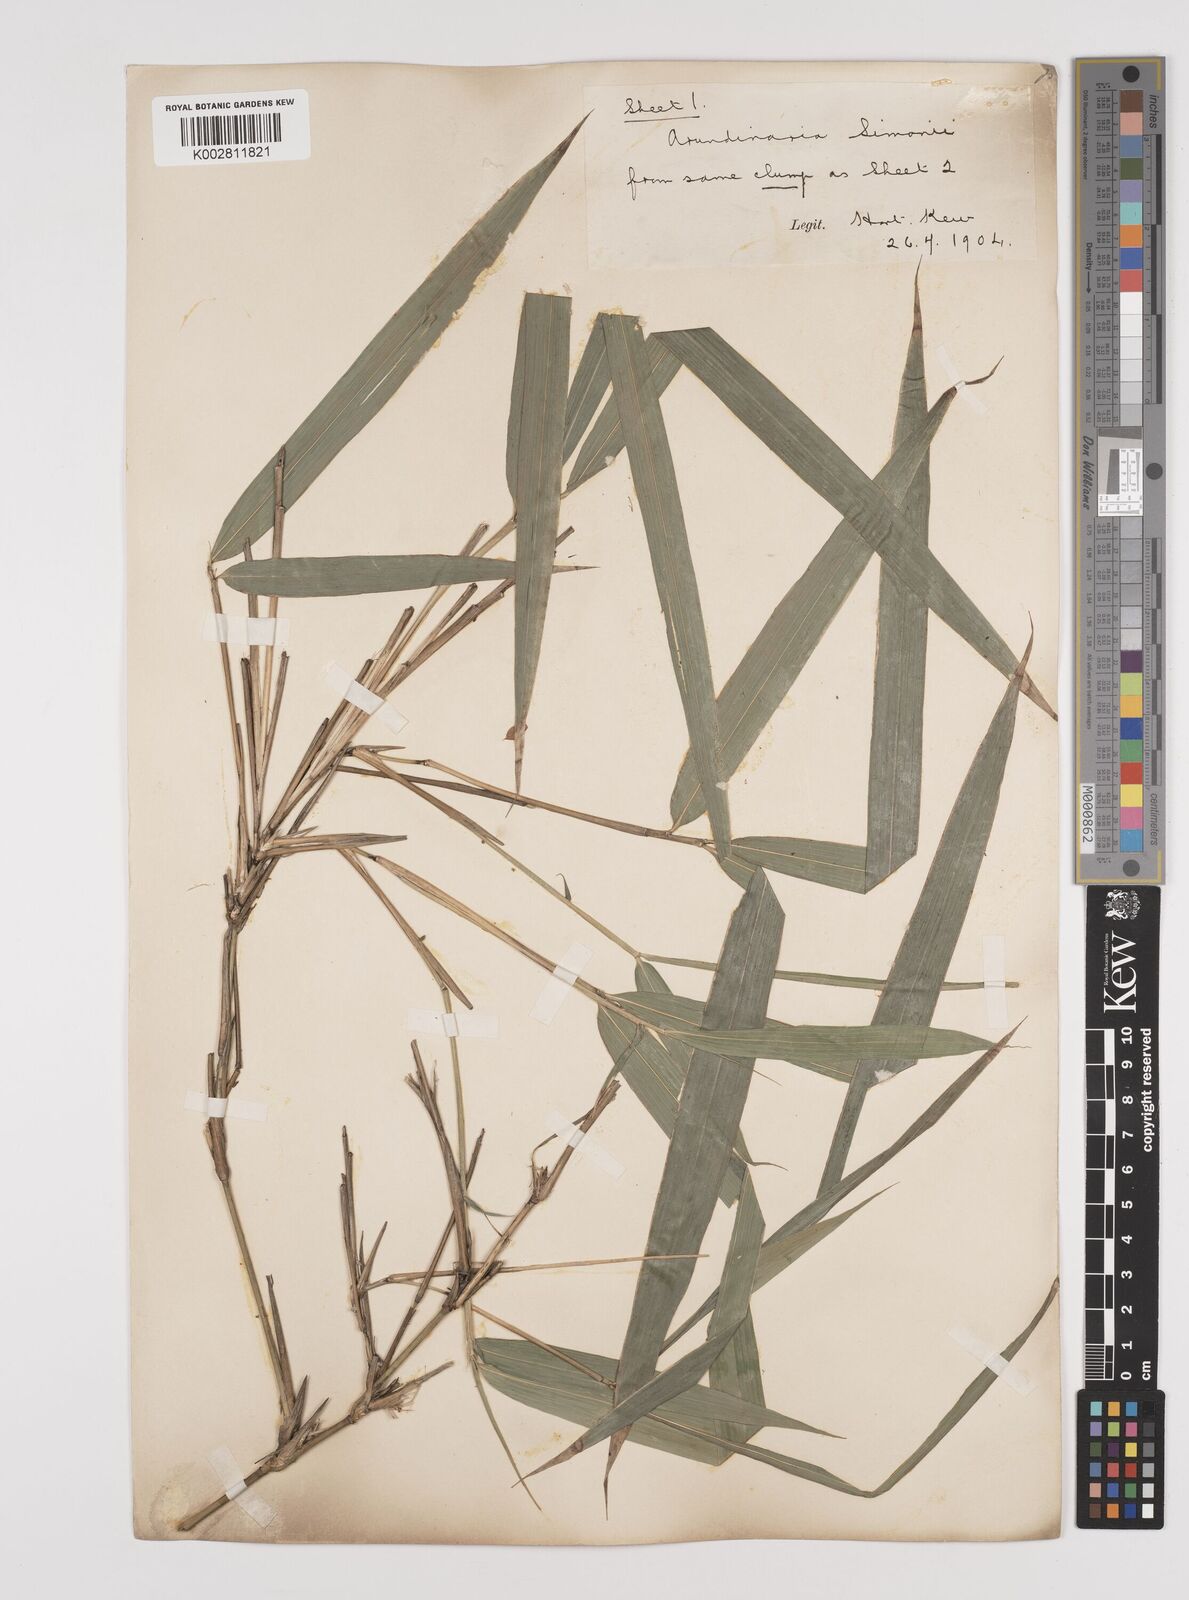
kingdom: Plantae
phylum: Tracheophyta
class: Liliopsida
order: Poales
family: Poaceae
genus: Pleioblastus
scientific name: Pleioblastus simonii
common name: Simon bamboo
